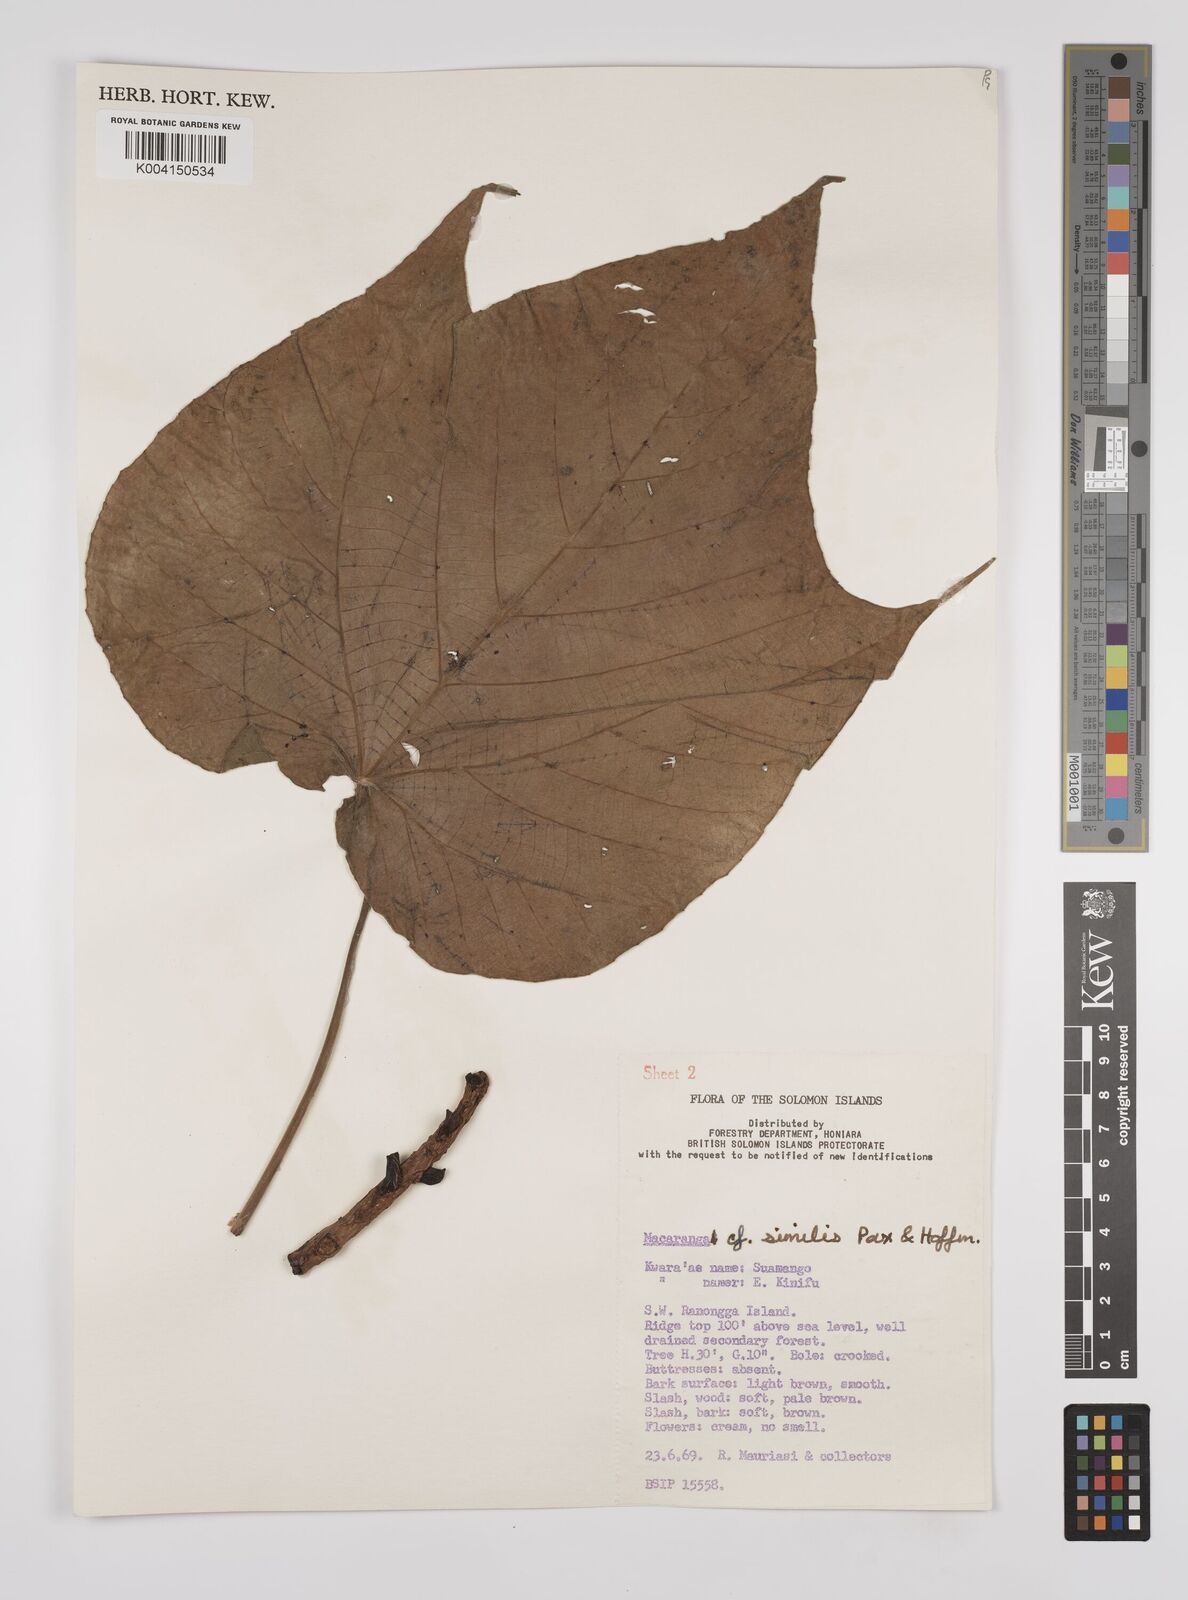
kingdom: Plantae
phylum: Tracheophyta
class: Magnoliopsida
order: Malpighiales
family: Euphorbiaceae
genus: Macaranga
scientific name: Macaranga similis
